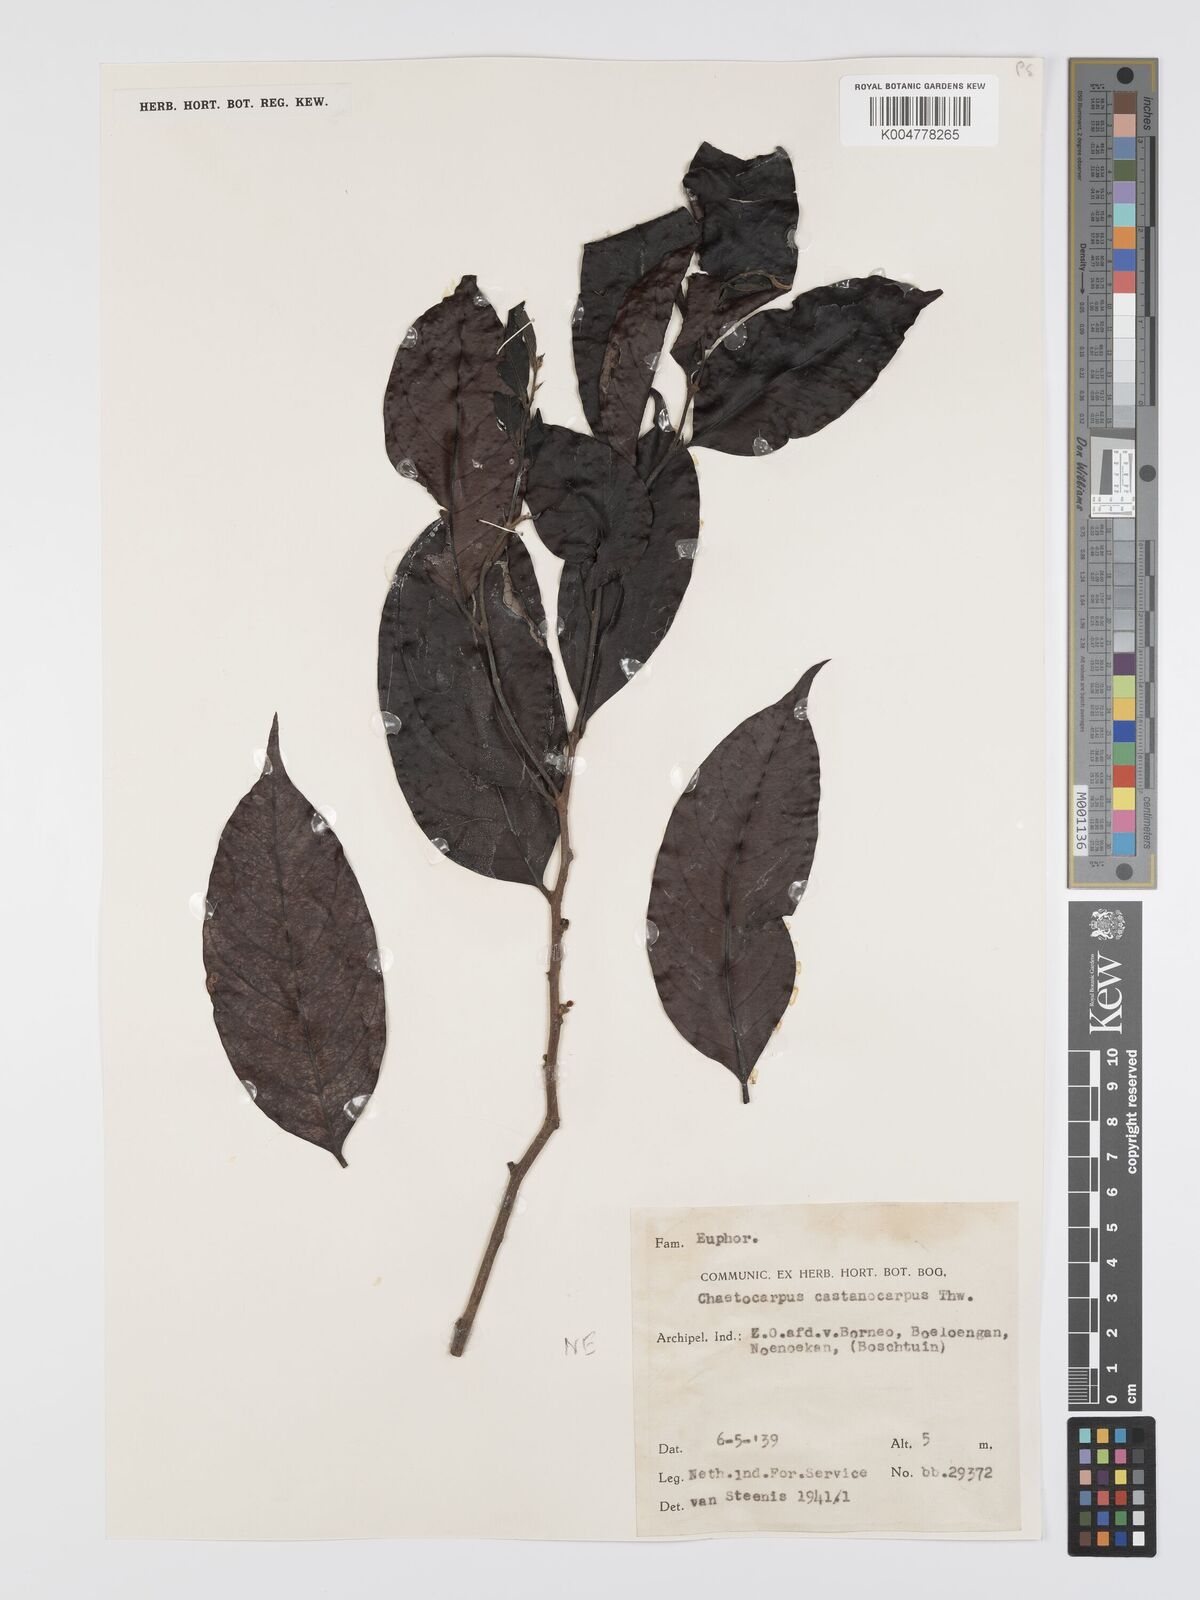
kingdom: Plantae
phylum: Tracheophyta
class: Magnoliopsida
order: Malpighiales
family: Peraceae
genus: Chaetocarpus
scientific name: Chaetocarpus castanocarpus
